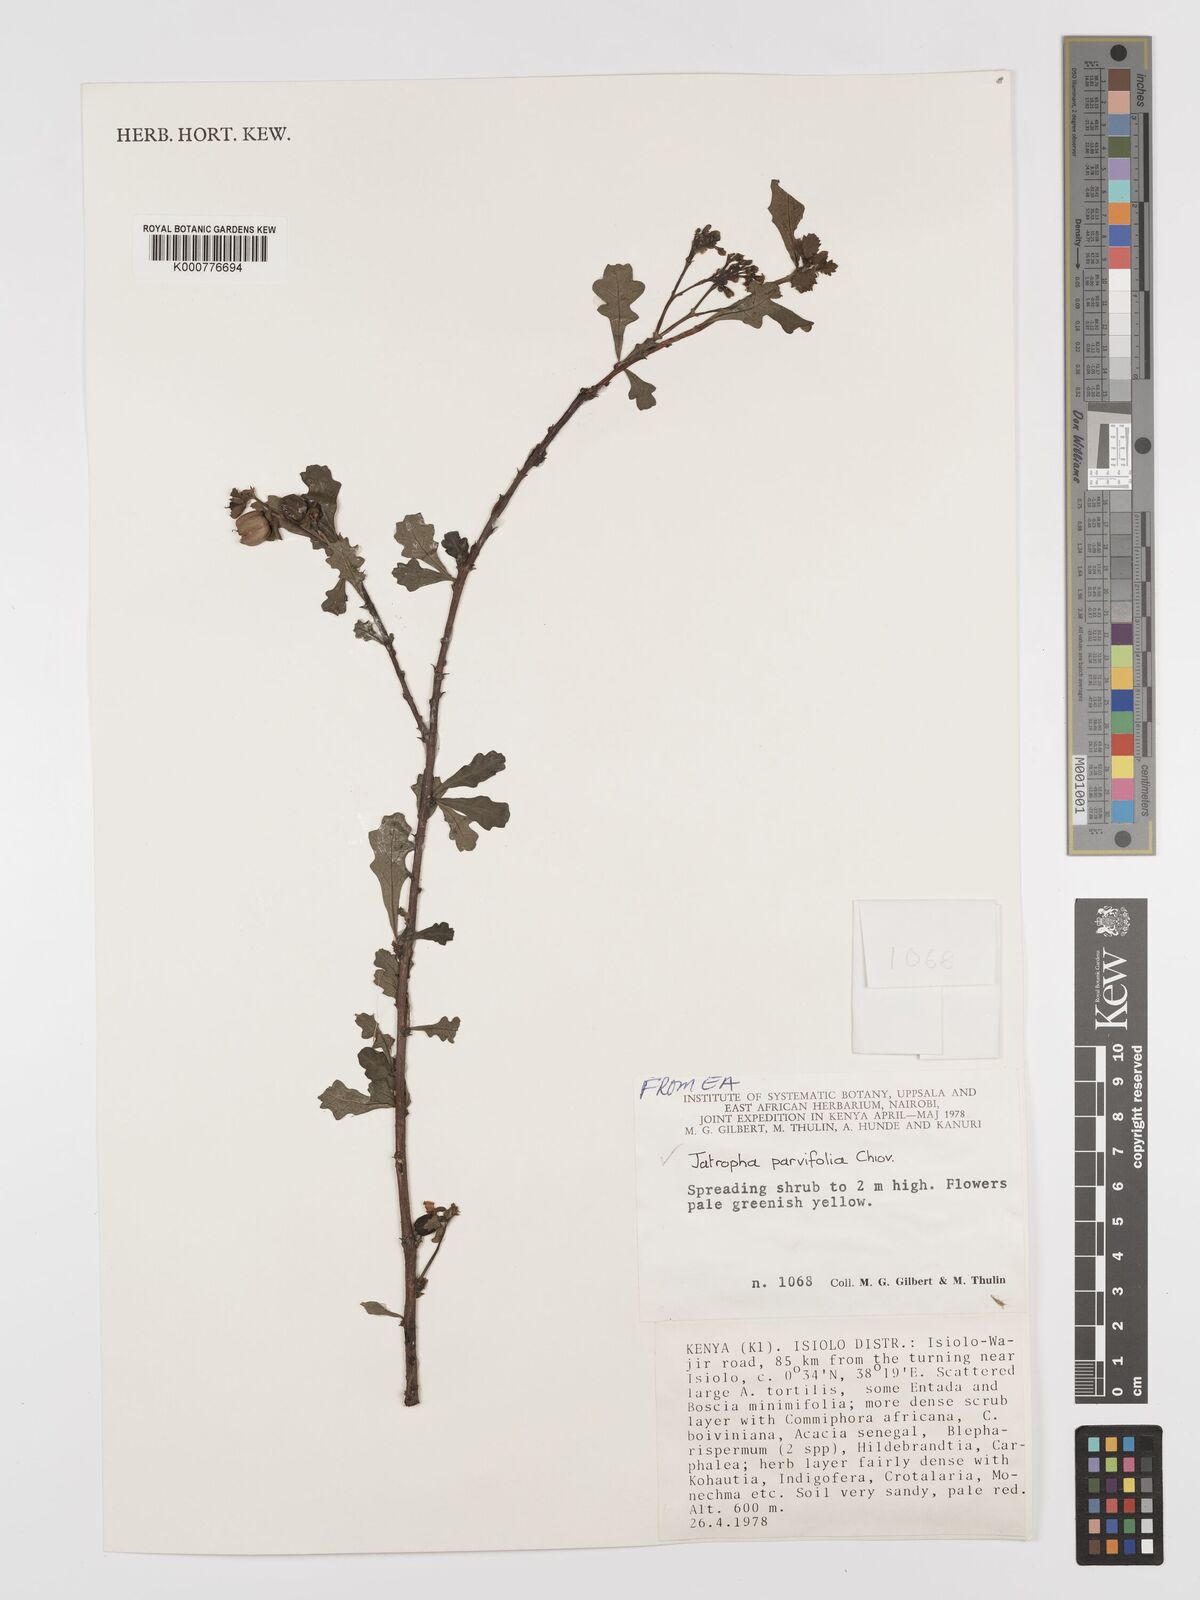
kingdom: Plantae
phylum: Tracheophyta
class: Magnoliopsida
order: Malpighiales
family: Euphorbiaceae
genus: Jatropha
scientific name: Jatropha rivae
